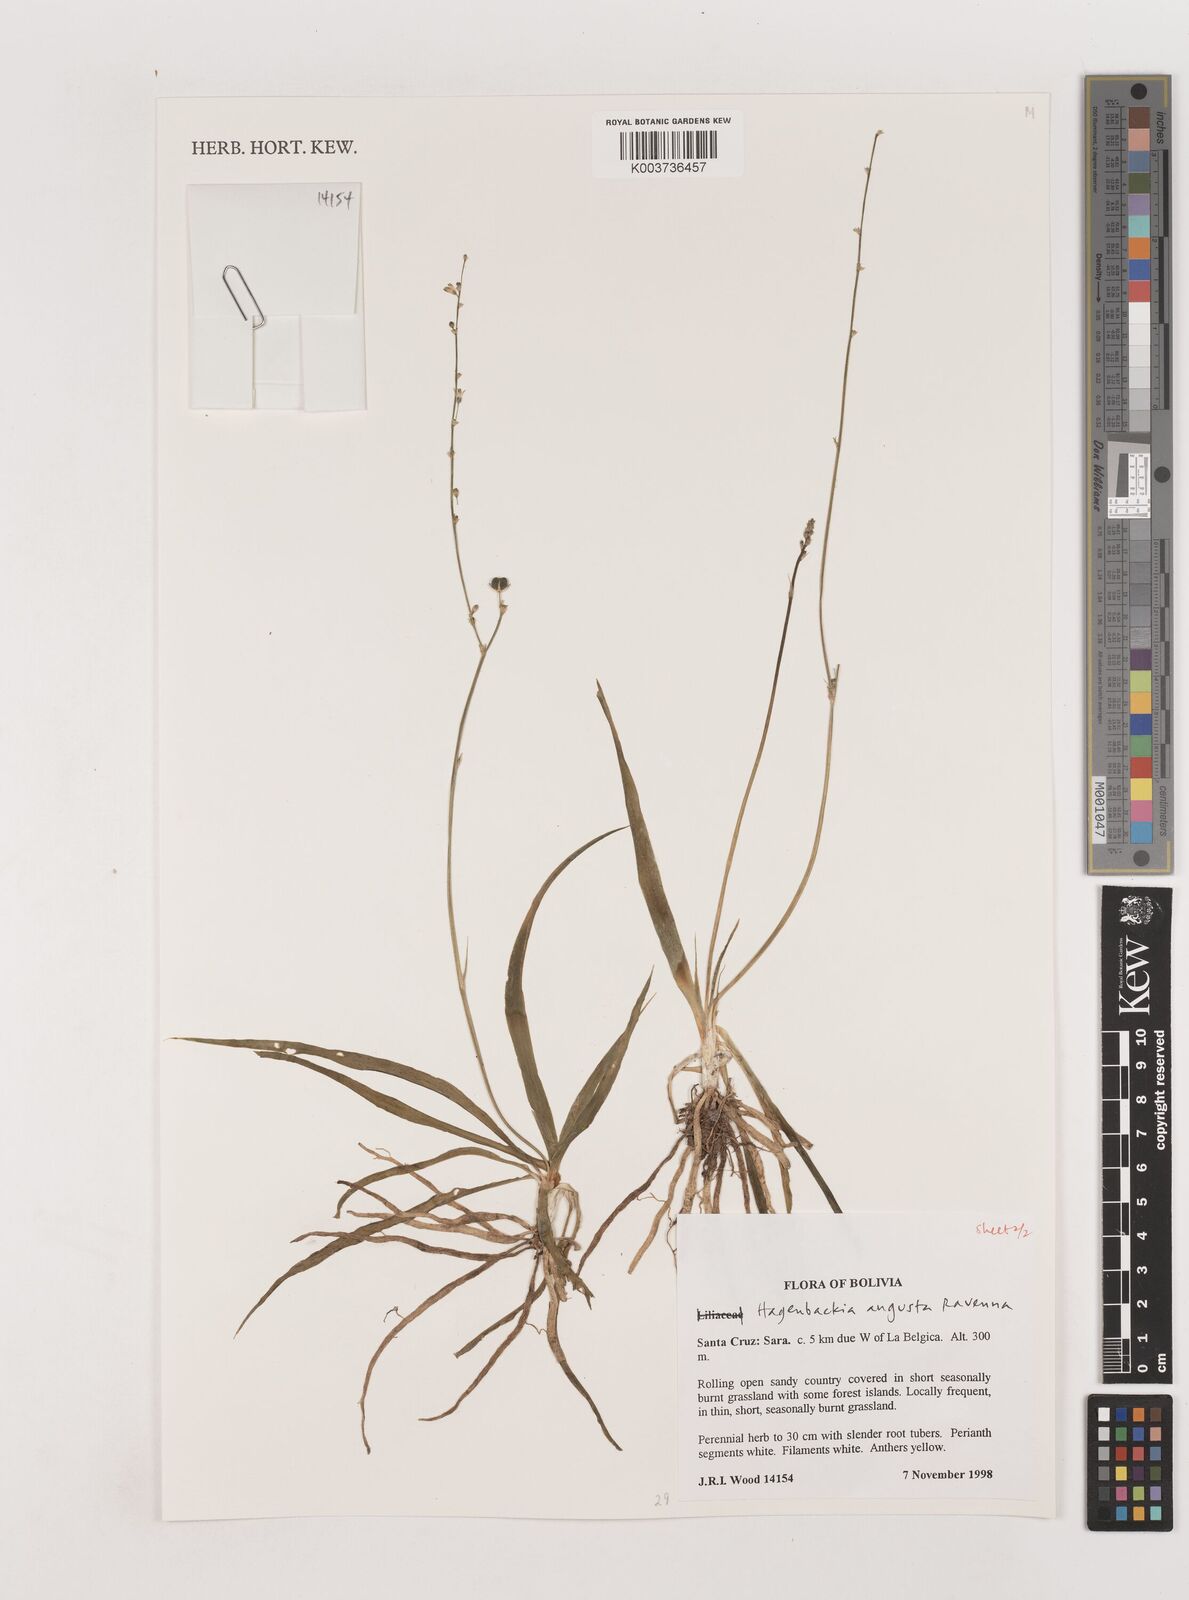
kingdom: Plantae
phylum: Tracheophyta
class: Liliopsida
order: Asparagales
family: Asparagaceae
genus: Hagenbachia
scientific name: Hagenbachia matogrossensis
